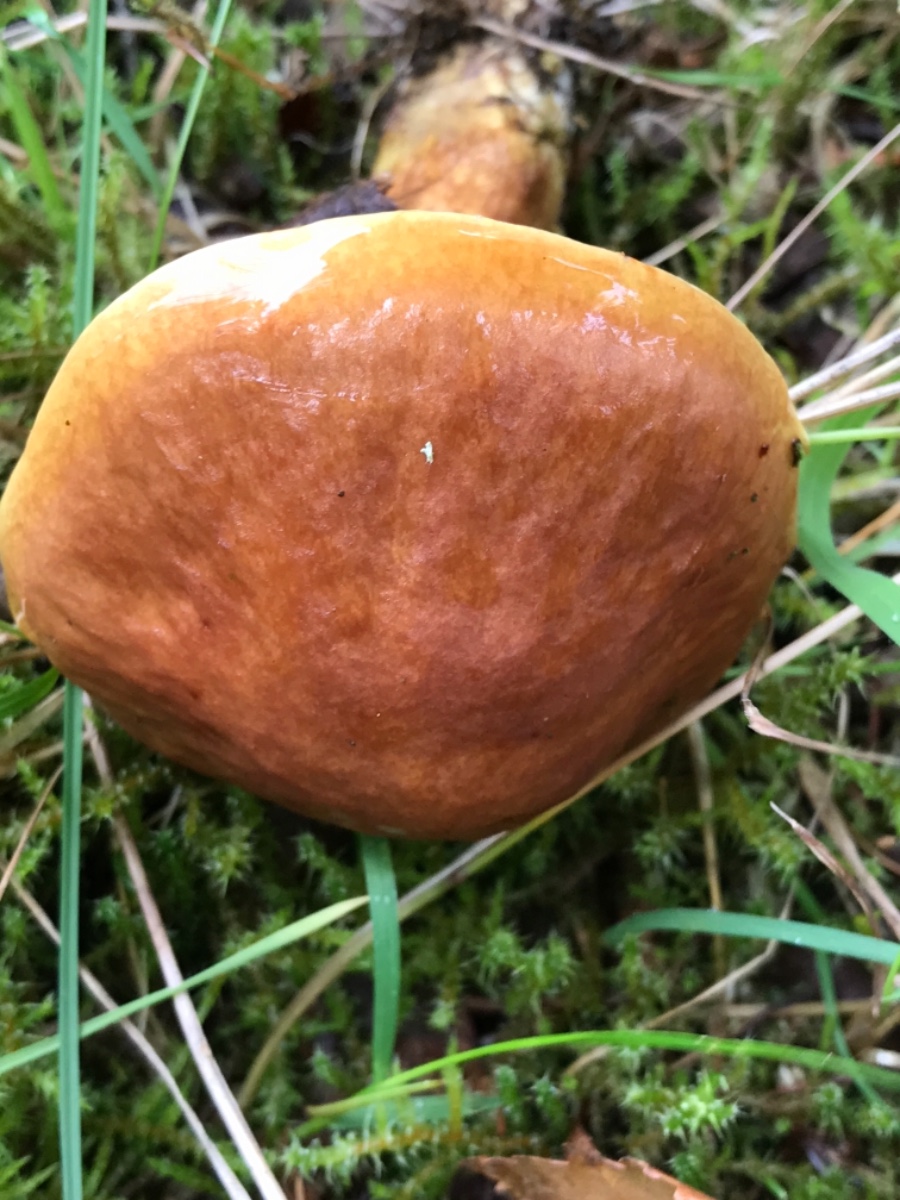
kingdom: Fungi
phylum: Basidiomycota
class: Agaricomycetes
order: Boletales
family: Suillaceae
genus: Suillus
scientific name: Suillus grevillei
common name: lærke-slimrørhat
